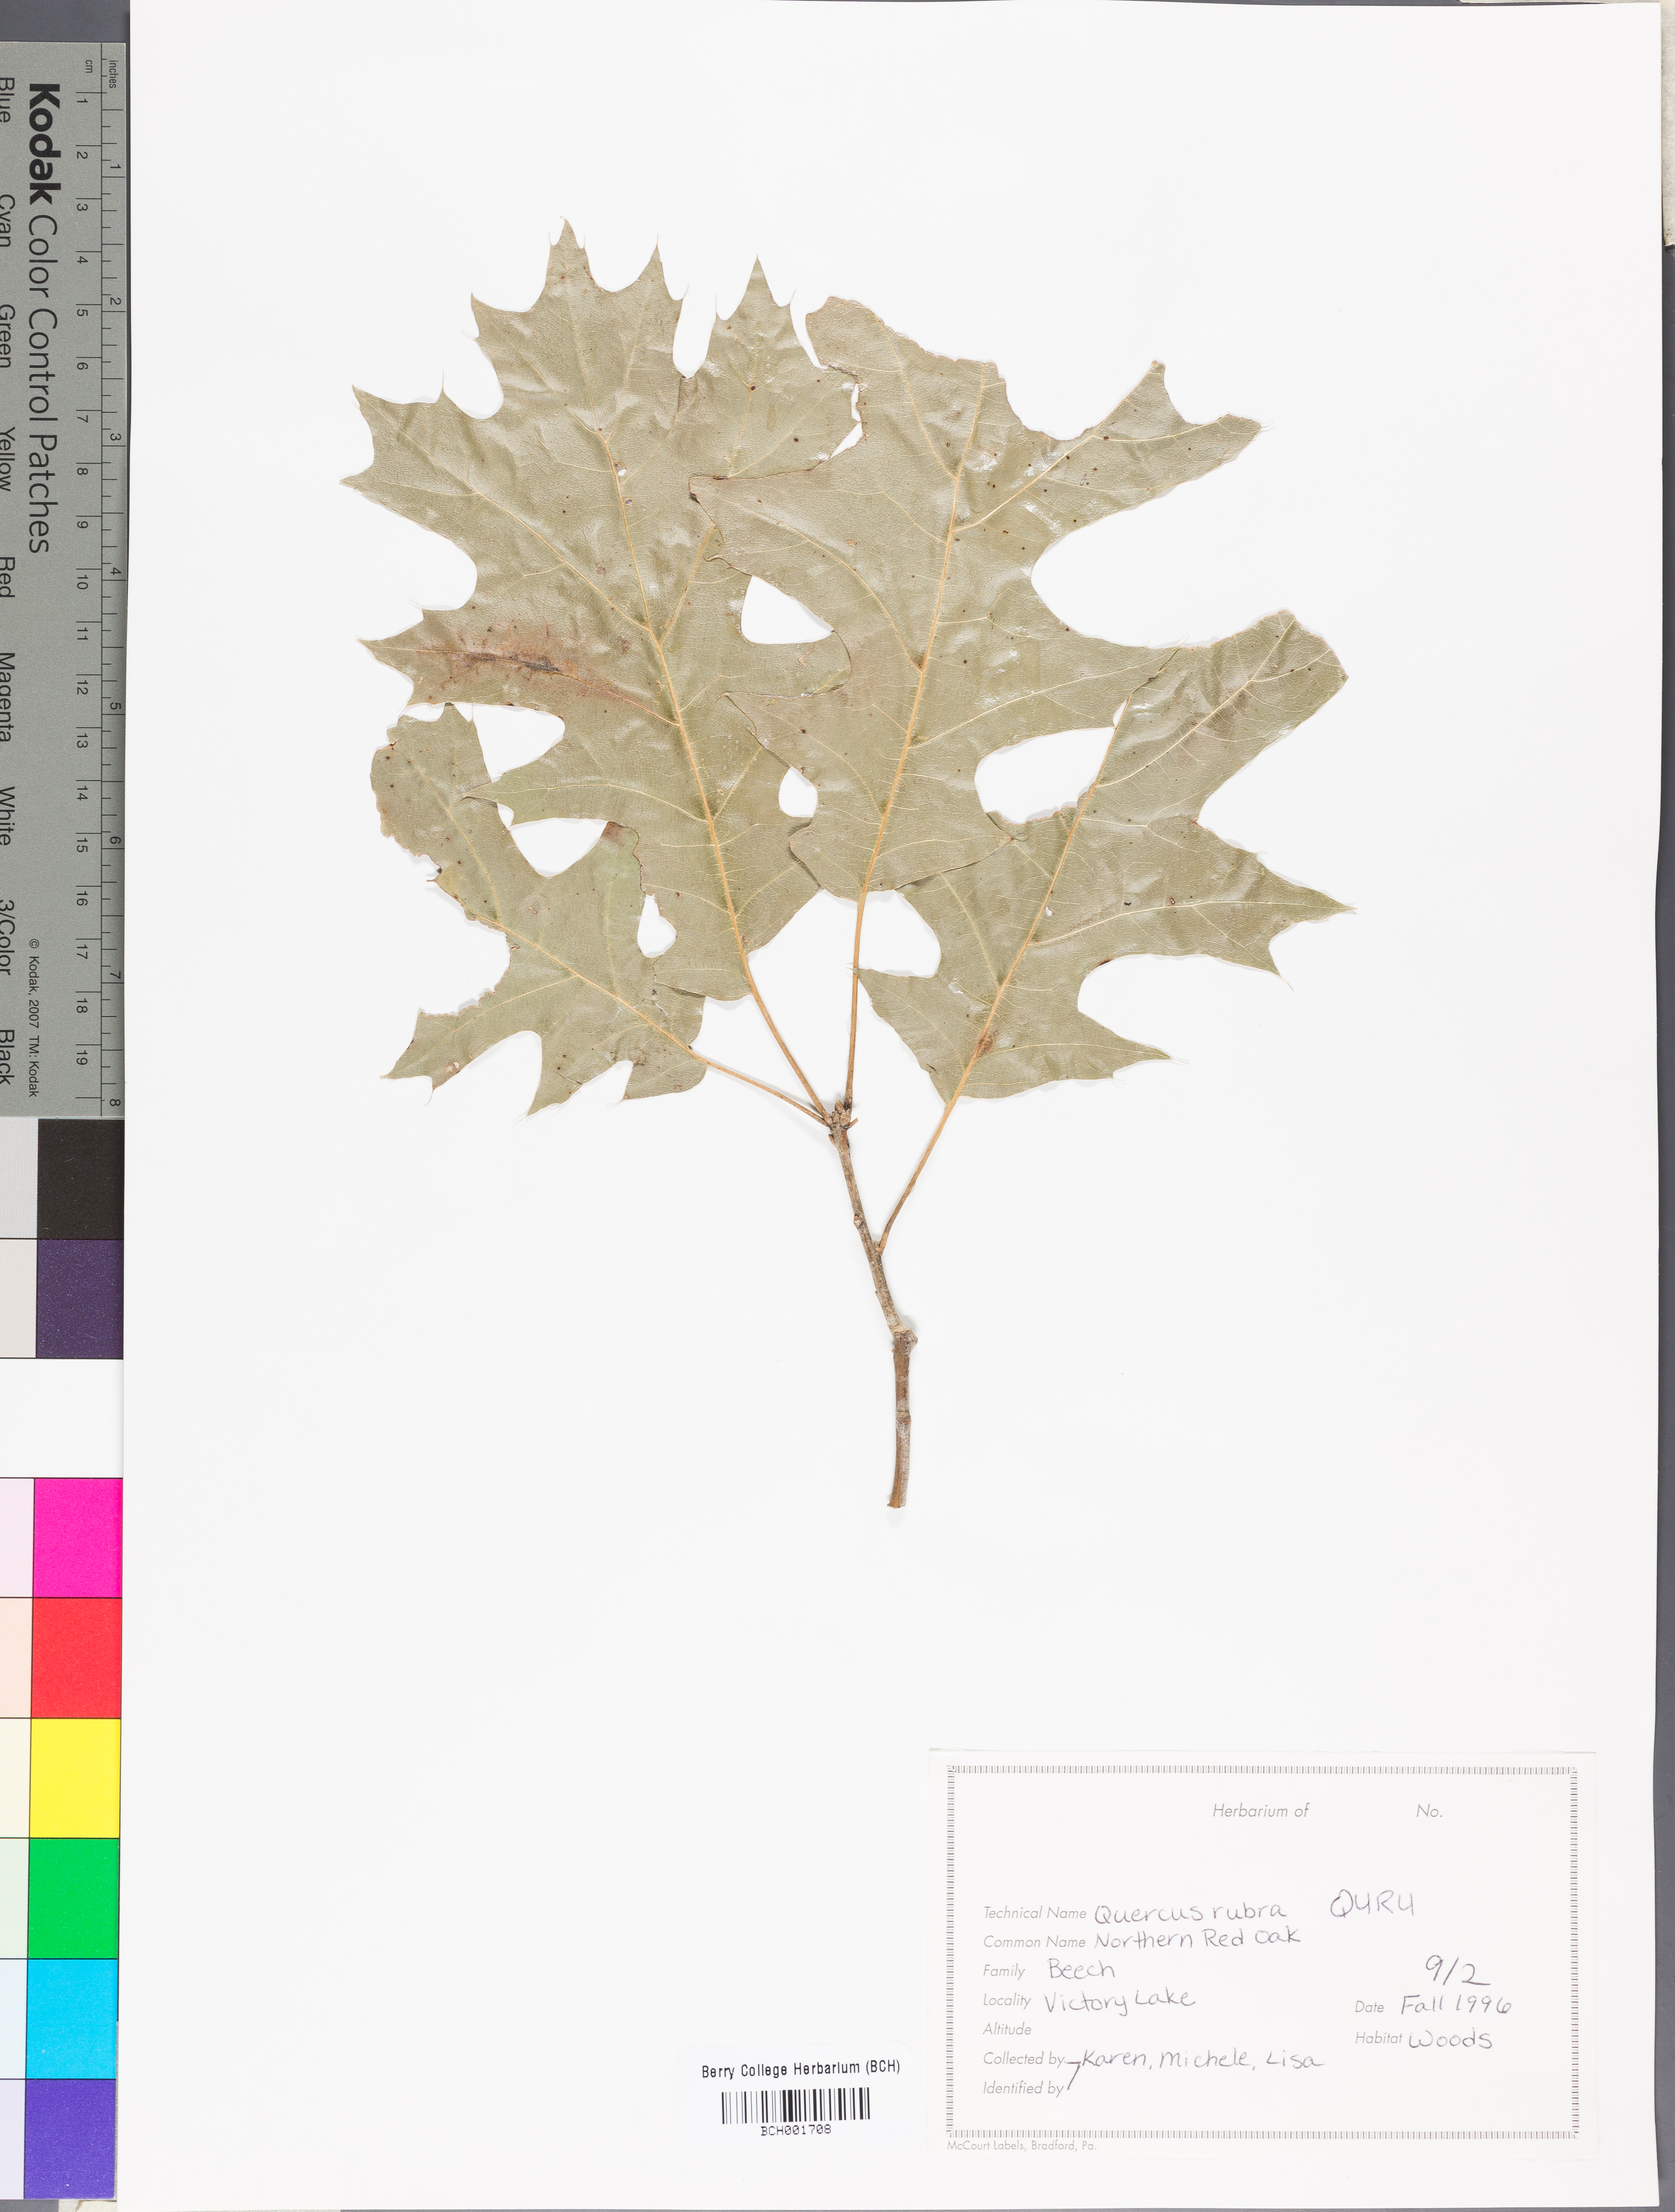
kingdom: Plantae
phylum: Tracheophyta
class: Magnoliopsida
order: Fagales
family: Fagaceae
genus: Quercus
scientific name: Quercus rubra
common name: Red oak
